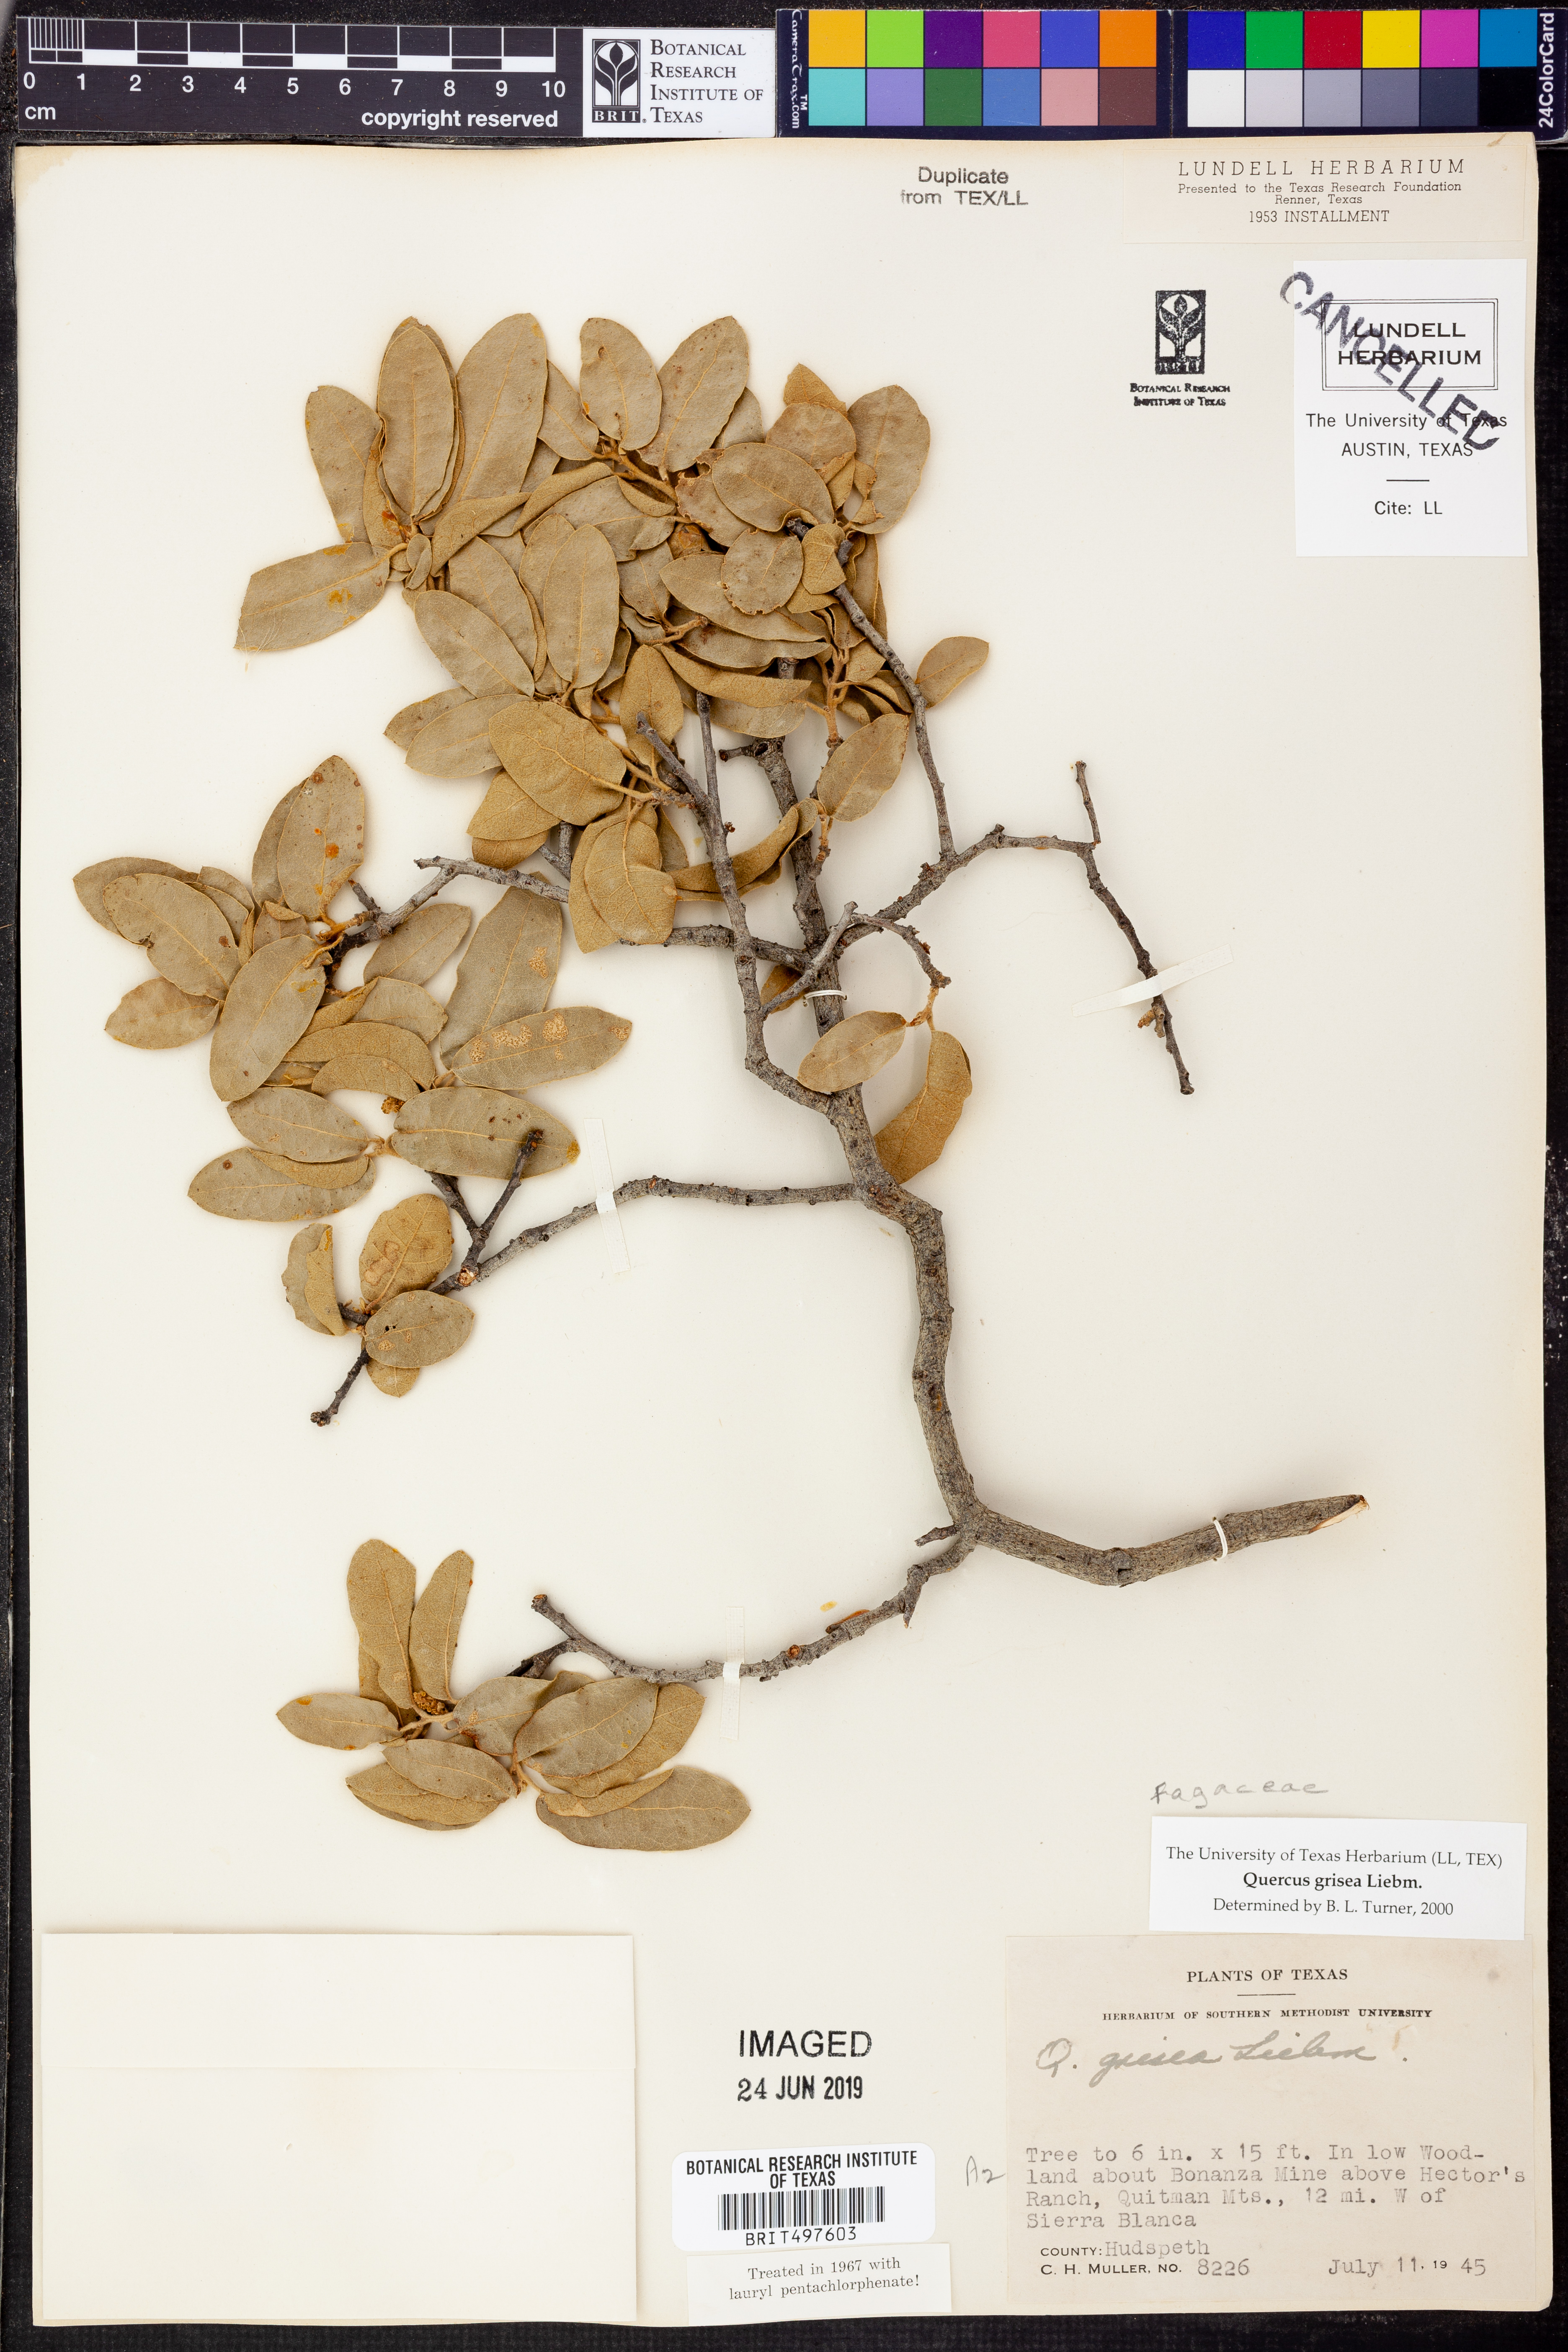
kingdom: Plantae
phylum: Tracheophyta
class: Magnoliopsida
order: Fagales
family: Fagaceae
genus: Quercus
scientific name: Quercus grisea
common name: Gray oak
